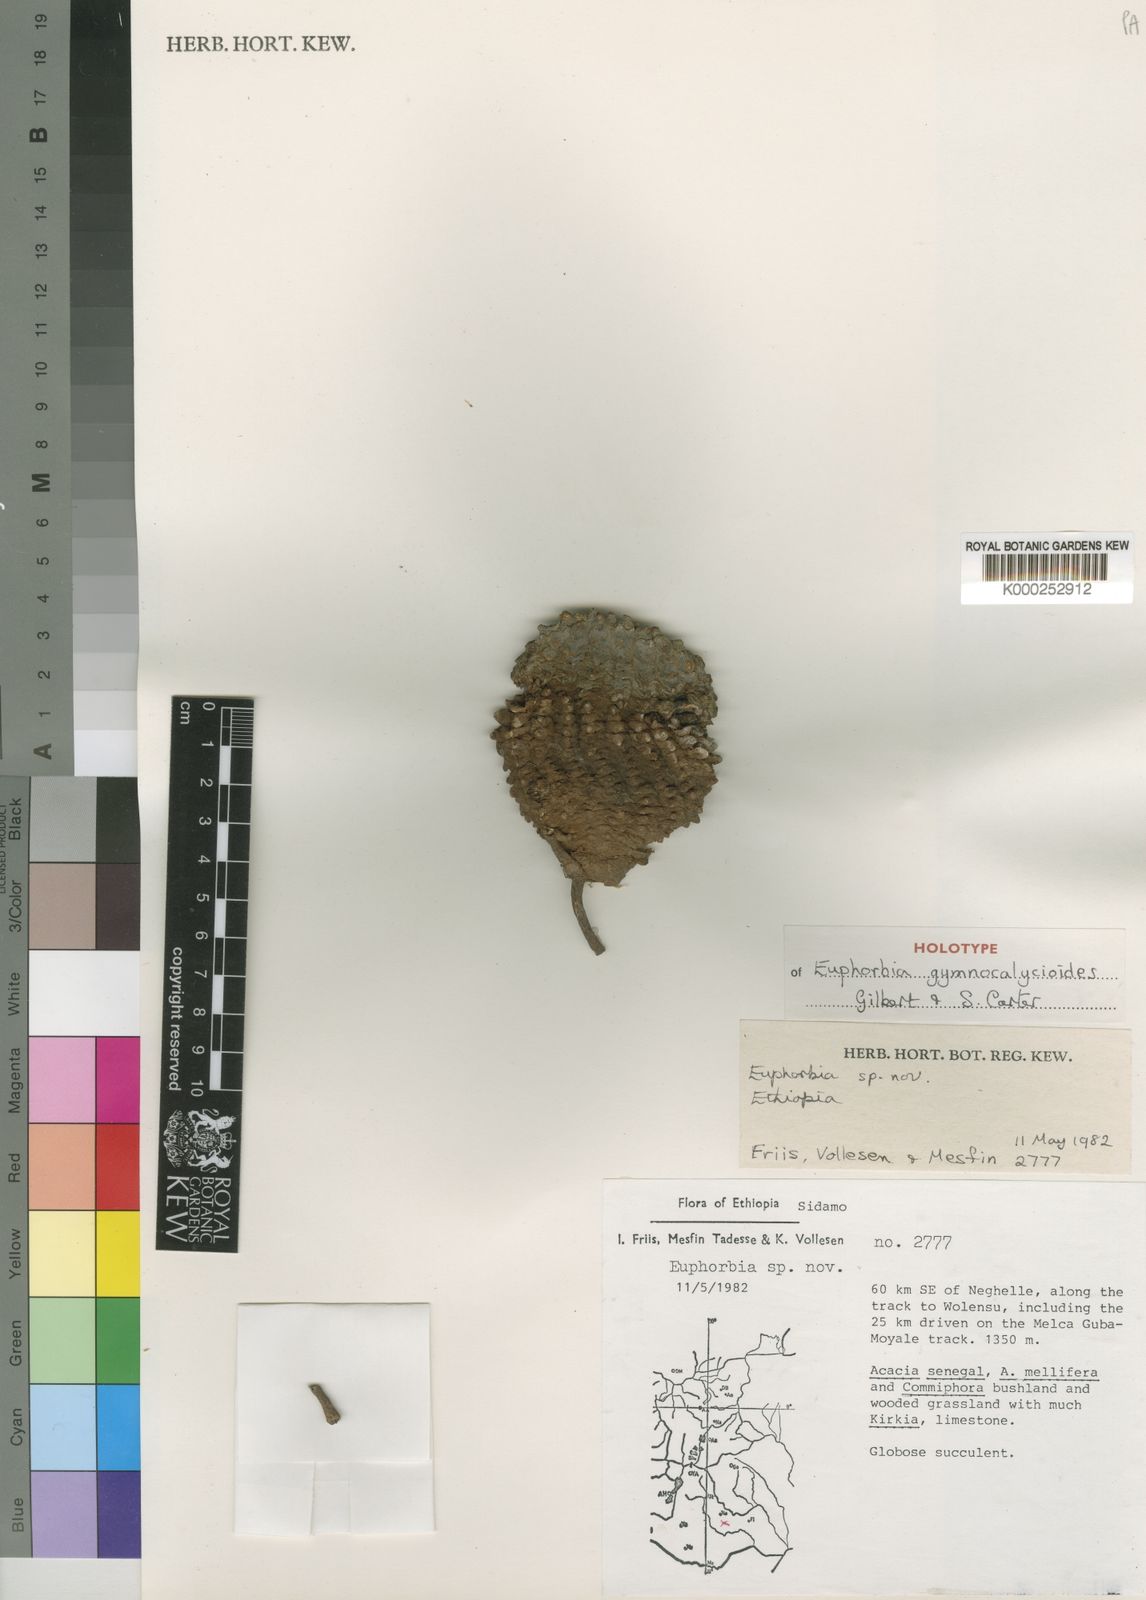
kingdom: Plantae
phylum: Tracheophyta
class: Magnoliopsida
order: Malpighiales
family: Euphorbiaceae
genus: Euphorbia
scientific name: Euphorbia gymnocalycioides
